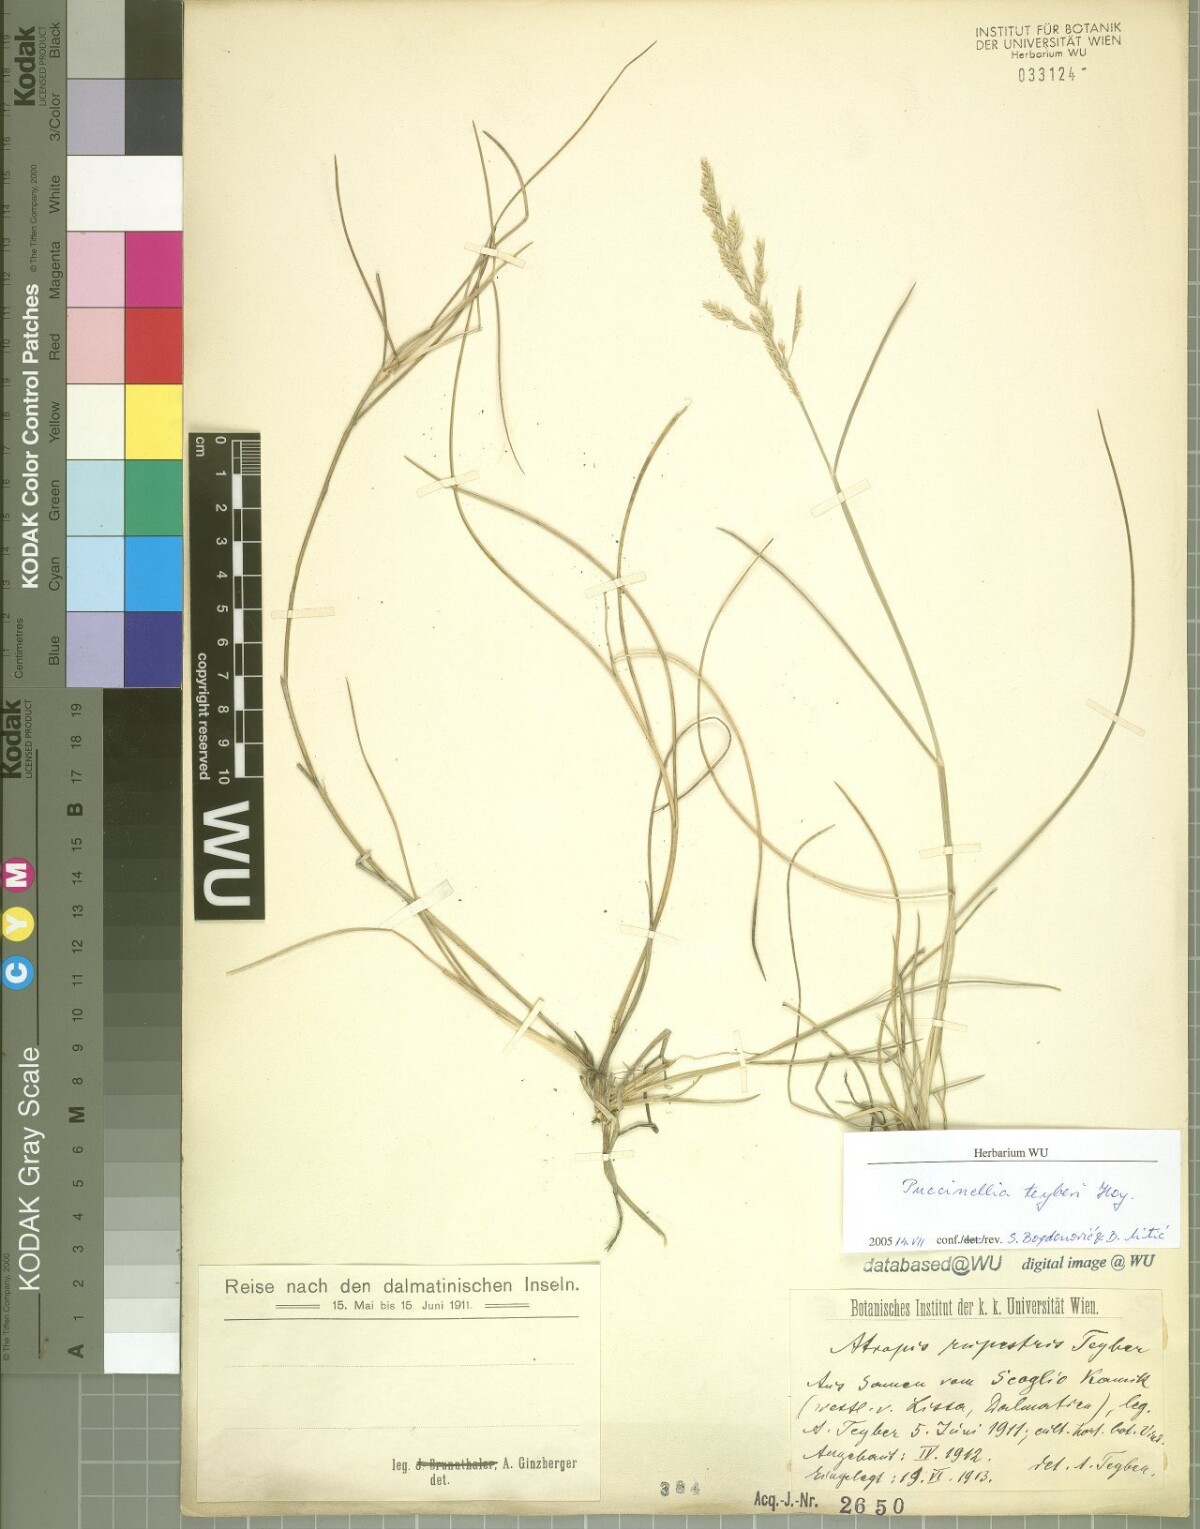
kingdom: Plantae
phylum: Tracheophyta
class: Liliopsida
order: Poales
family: Poaceae
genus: Puccinellia
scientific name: Puccinellia festuciformis
